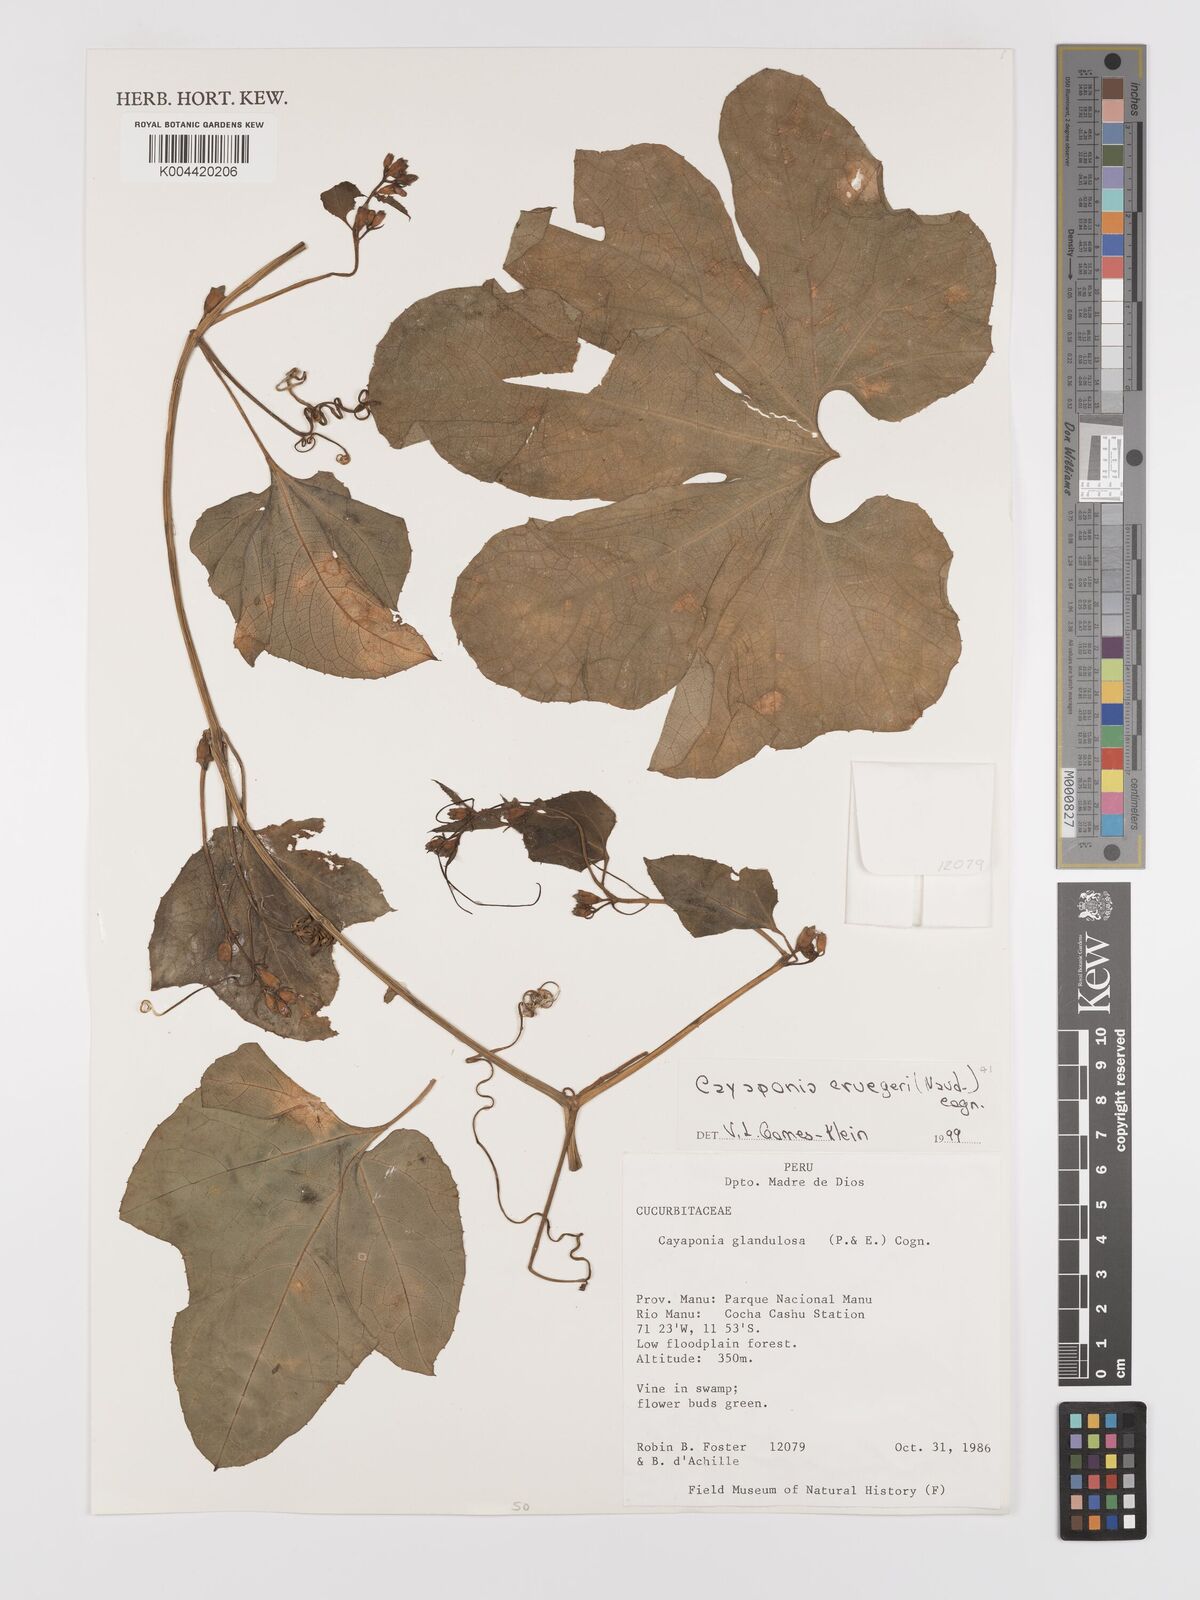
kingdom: Plantae
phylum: Tracheophyta
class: Magnoliopsida
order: Cucurbitales
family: Cucurbitaceae
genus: Cayaponia
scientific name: Cayaponia cruegeri
